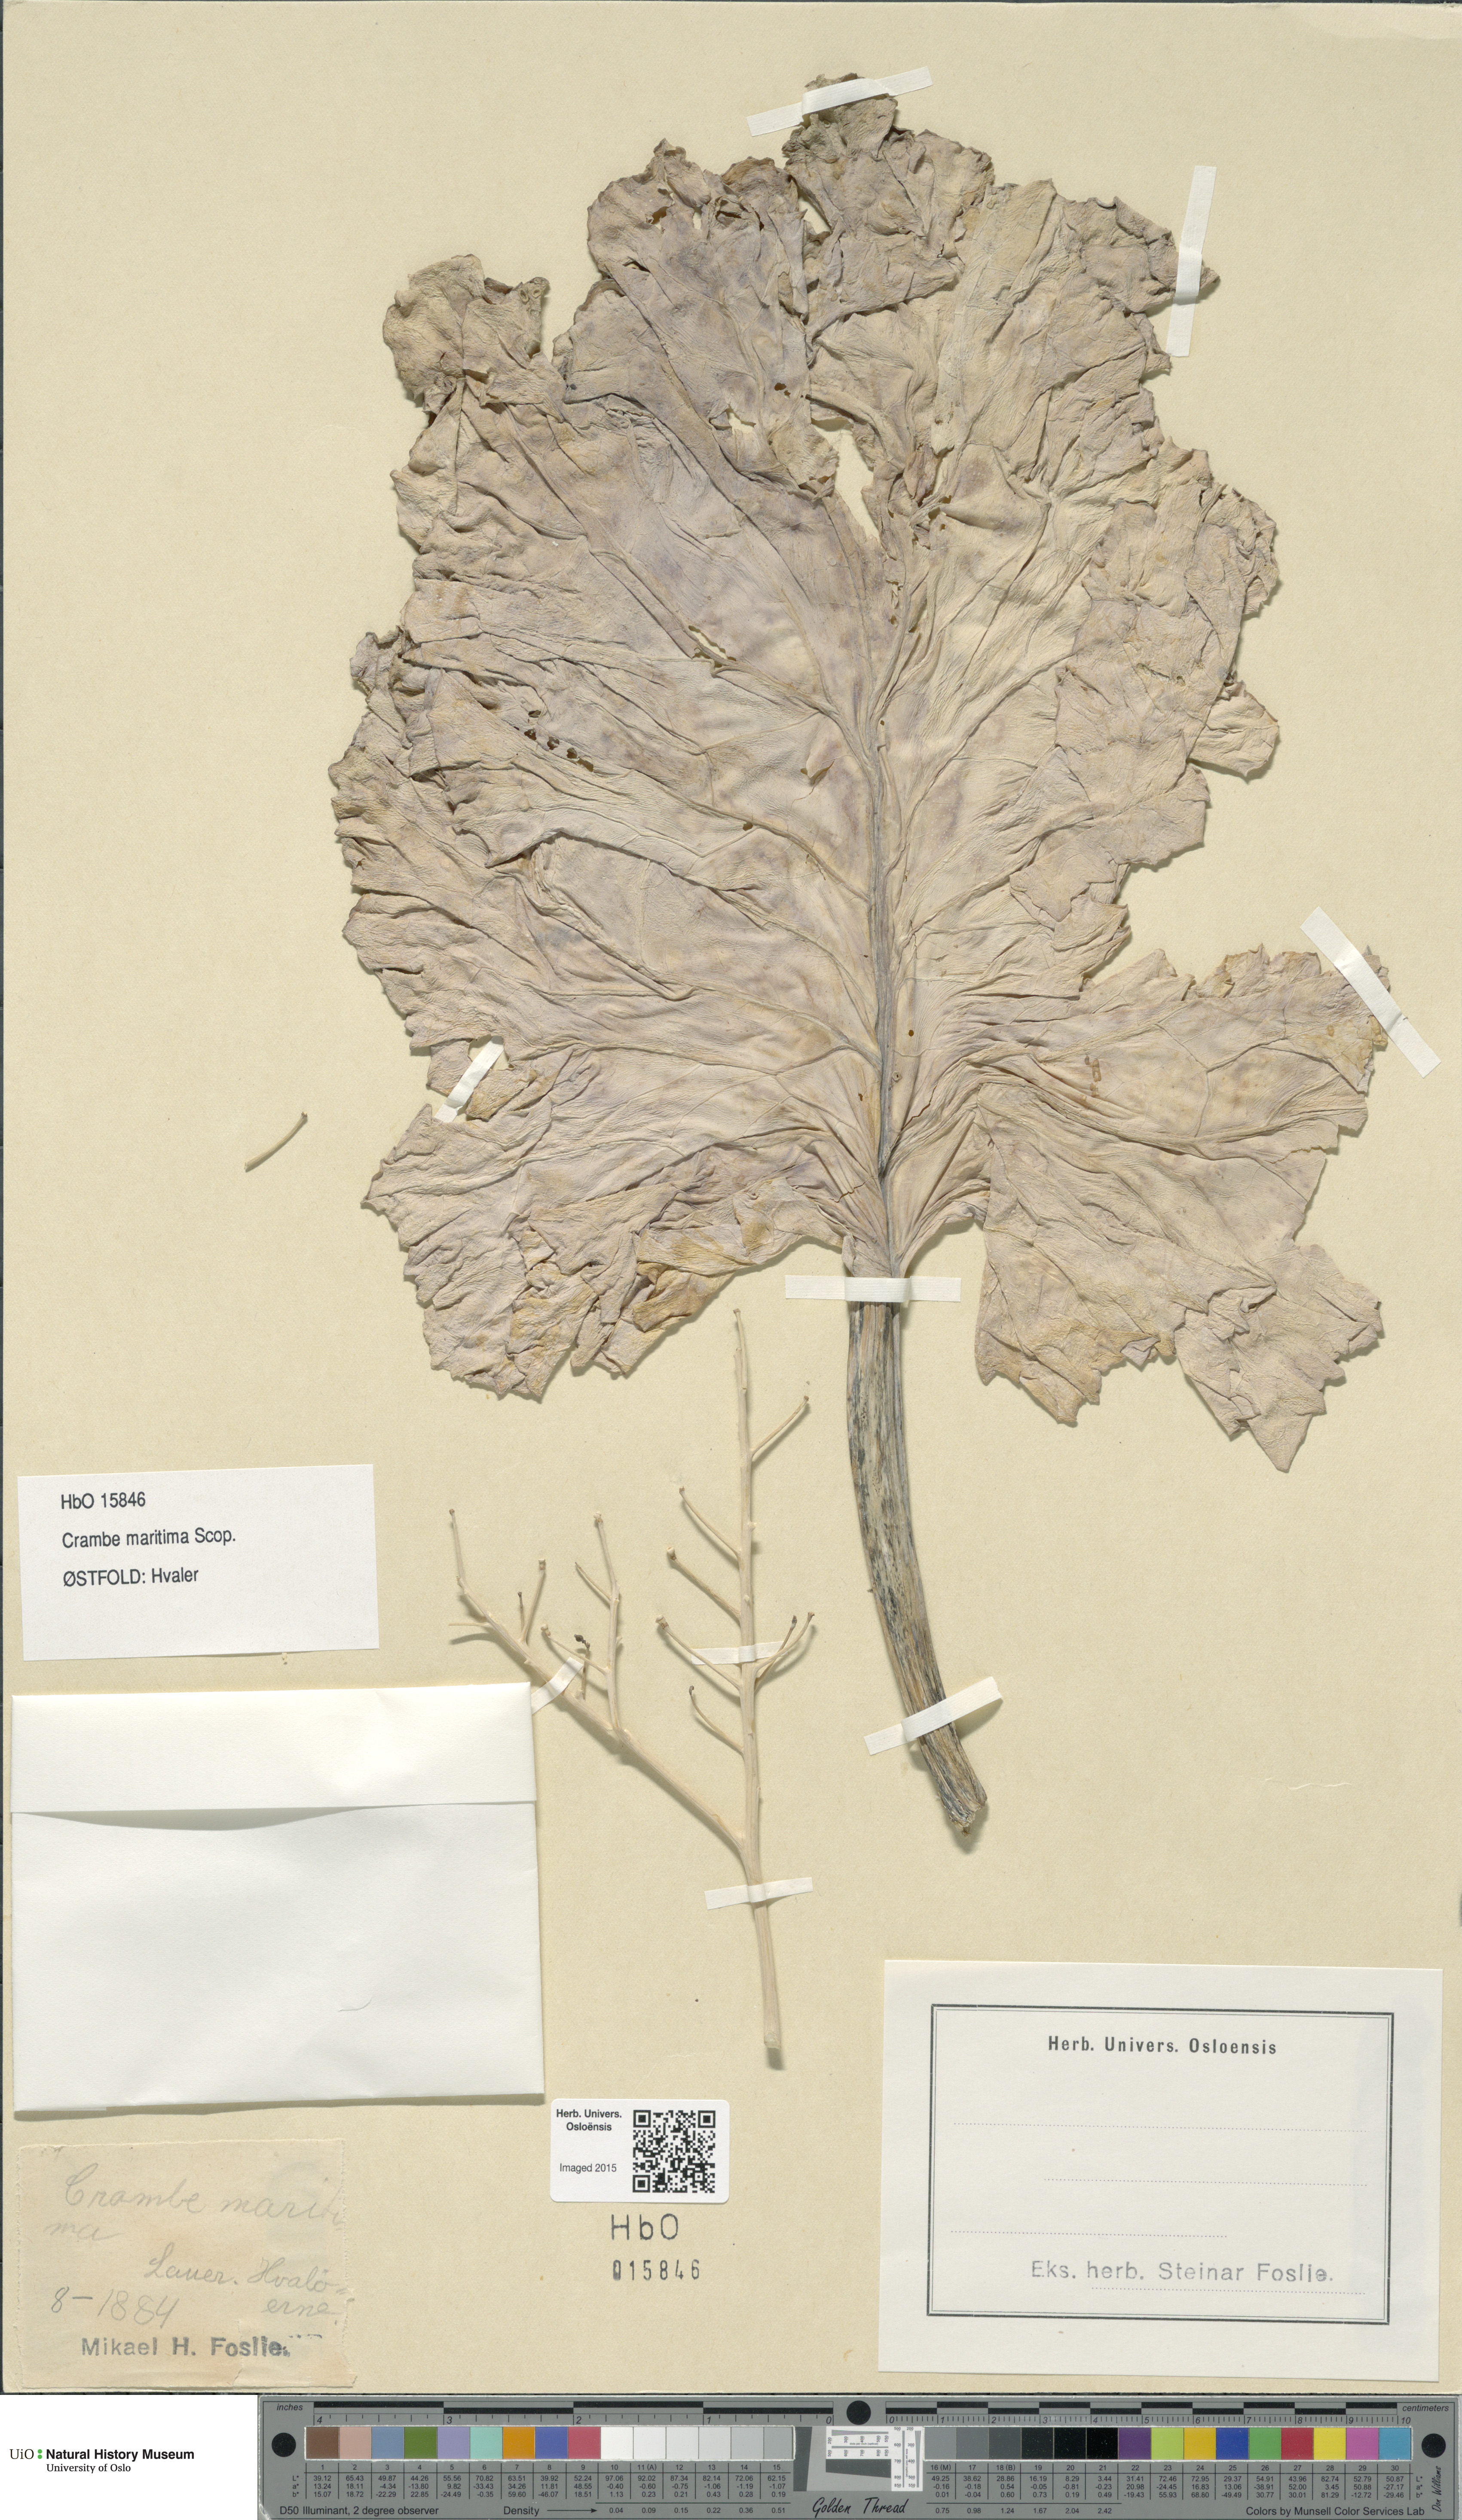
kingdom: Plantae
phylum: Tracheophyta
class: Magnoliopsida
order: Brassicales
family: Brassicaceae
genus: Crambe
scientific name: Crambe maritima
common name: Sea-kale
